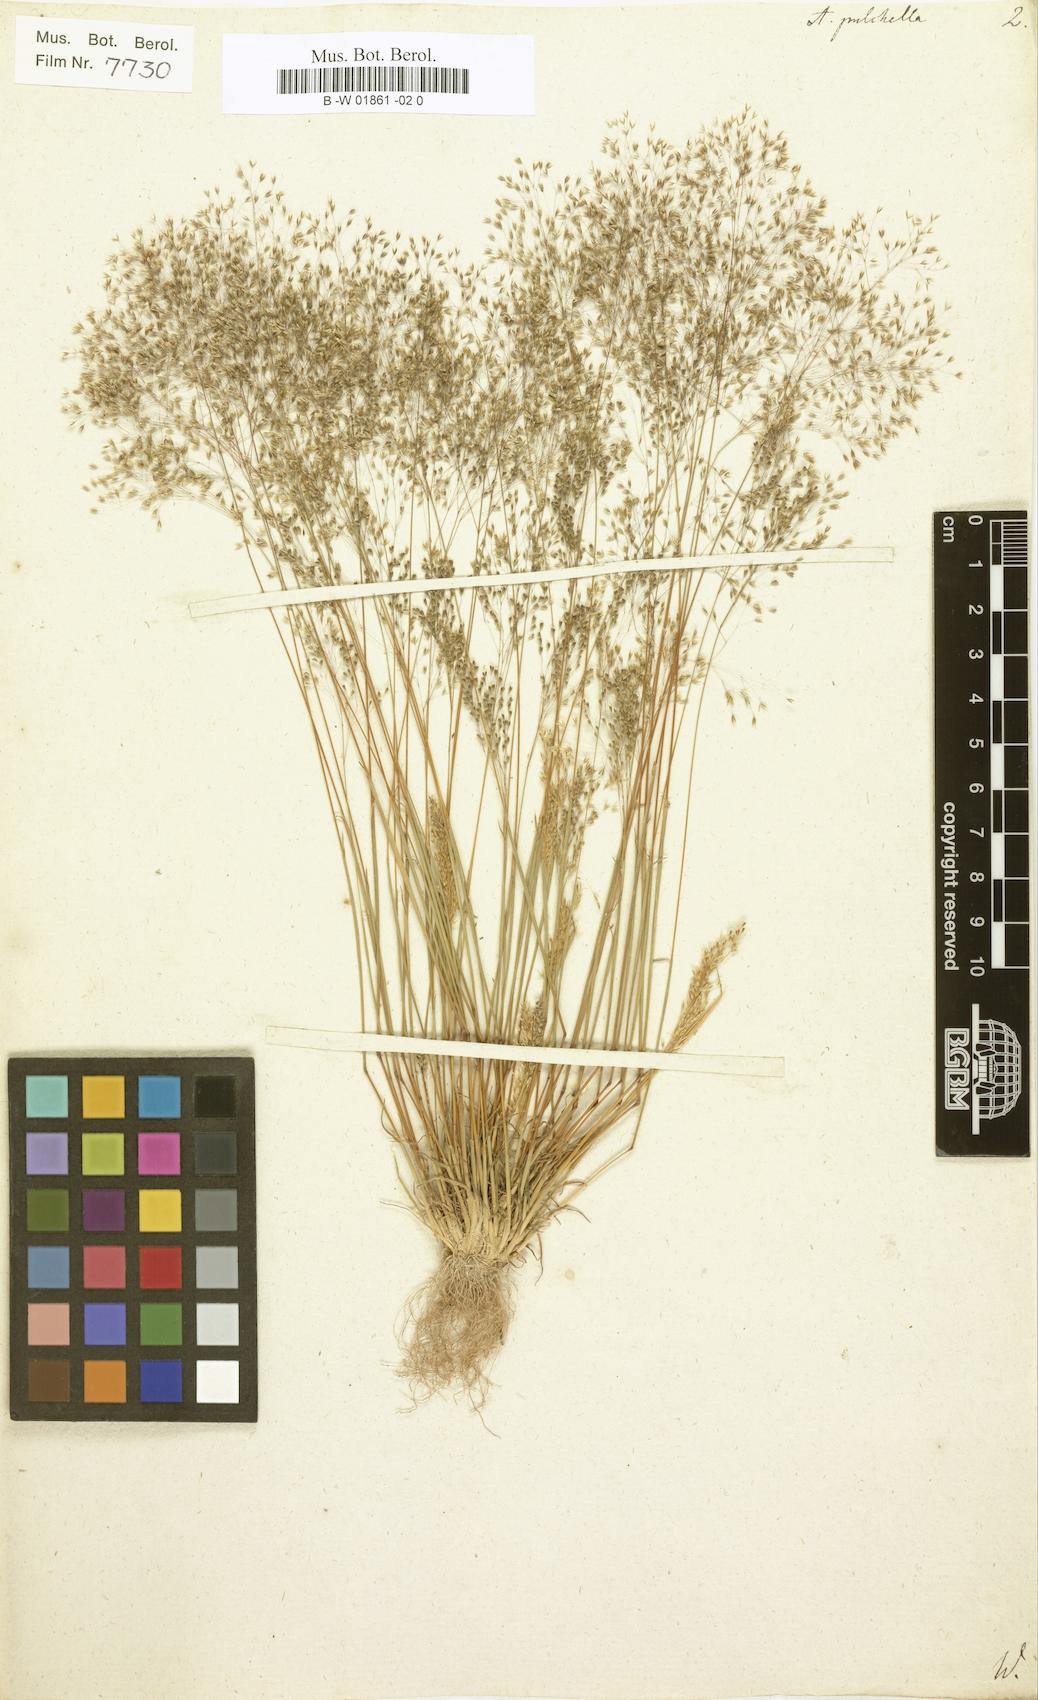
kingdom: Plantae
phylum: Tracheophyta
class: Liliopsida
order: Poales
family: Poaceae
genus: Molineriella
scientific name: Molineriella laevis
